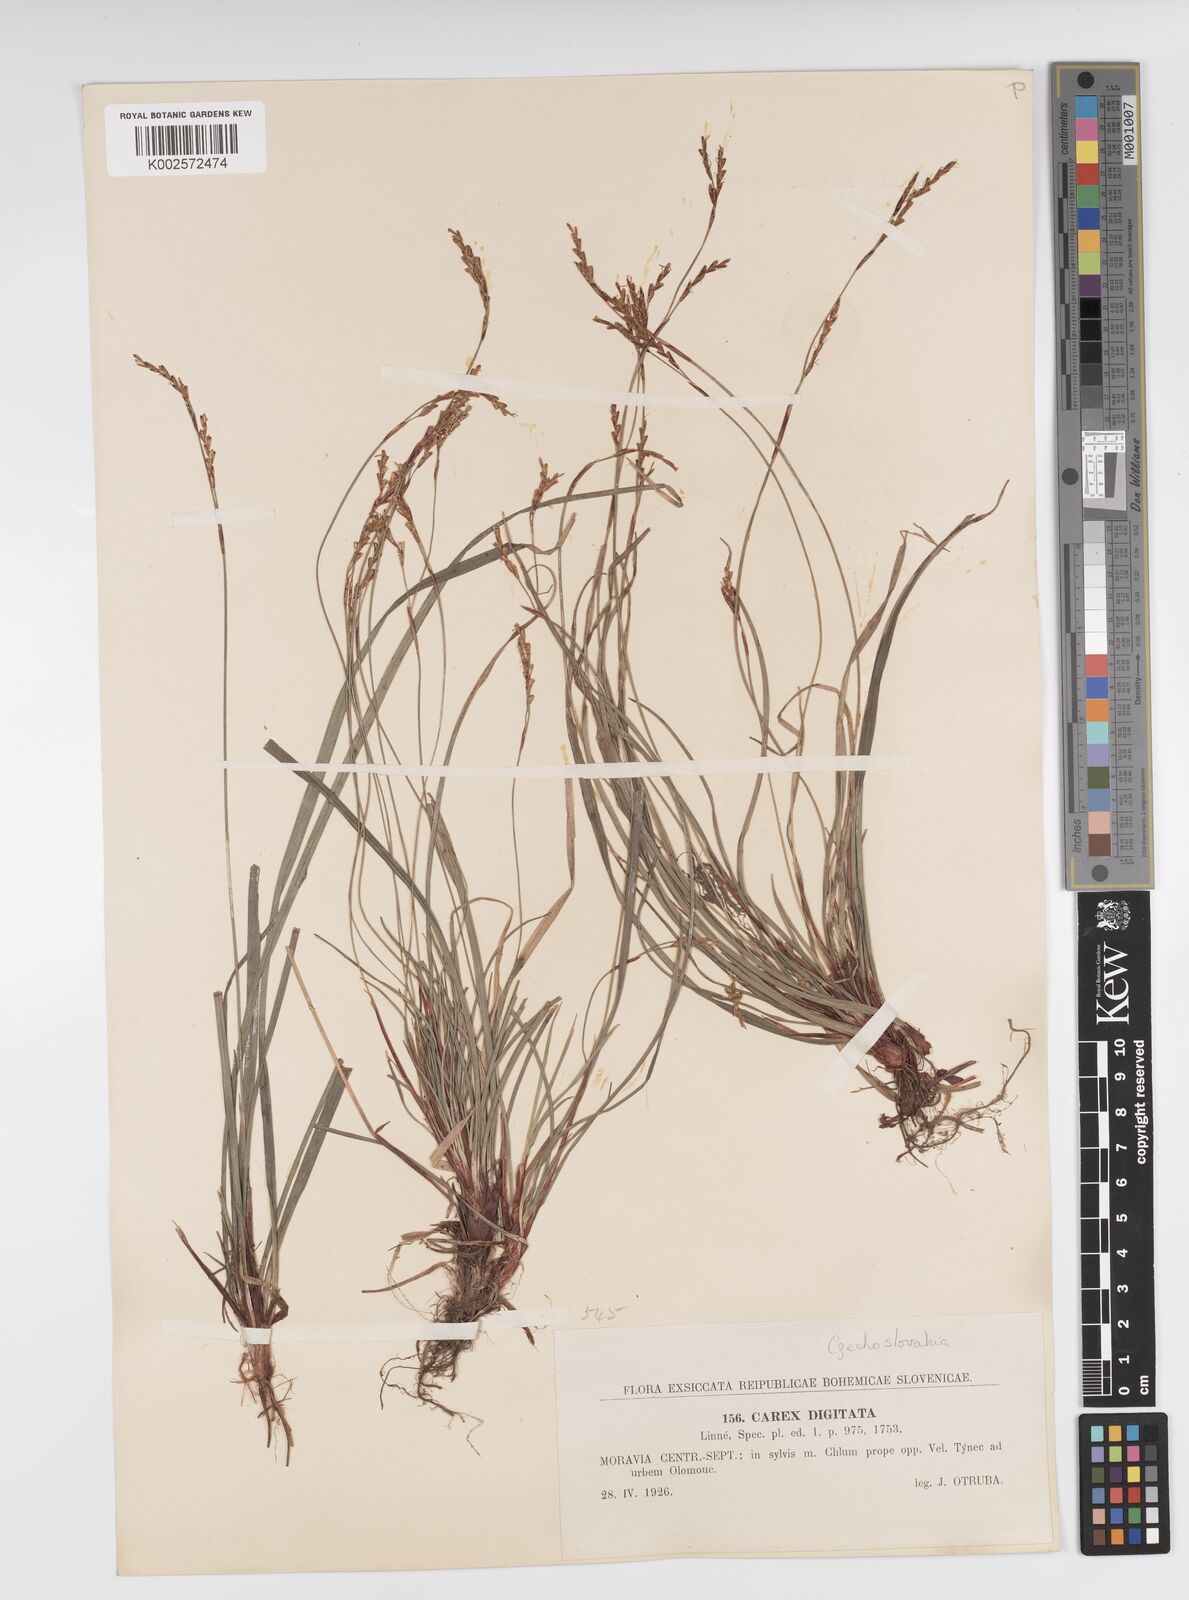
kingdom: Plantae
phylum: Tracheophyta
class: Liliopsida
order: Poales
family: Cyperaceae
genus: Carex
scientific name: Carex digitata
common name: Fingered sedge
